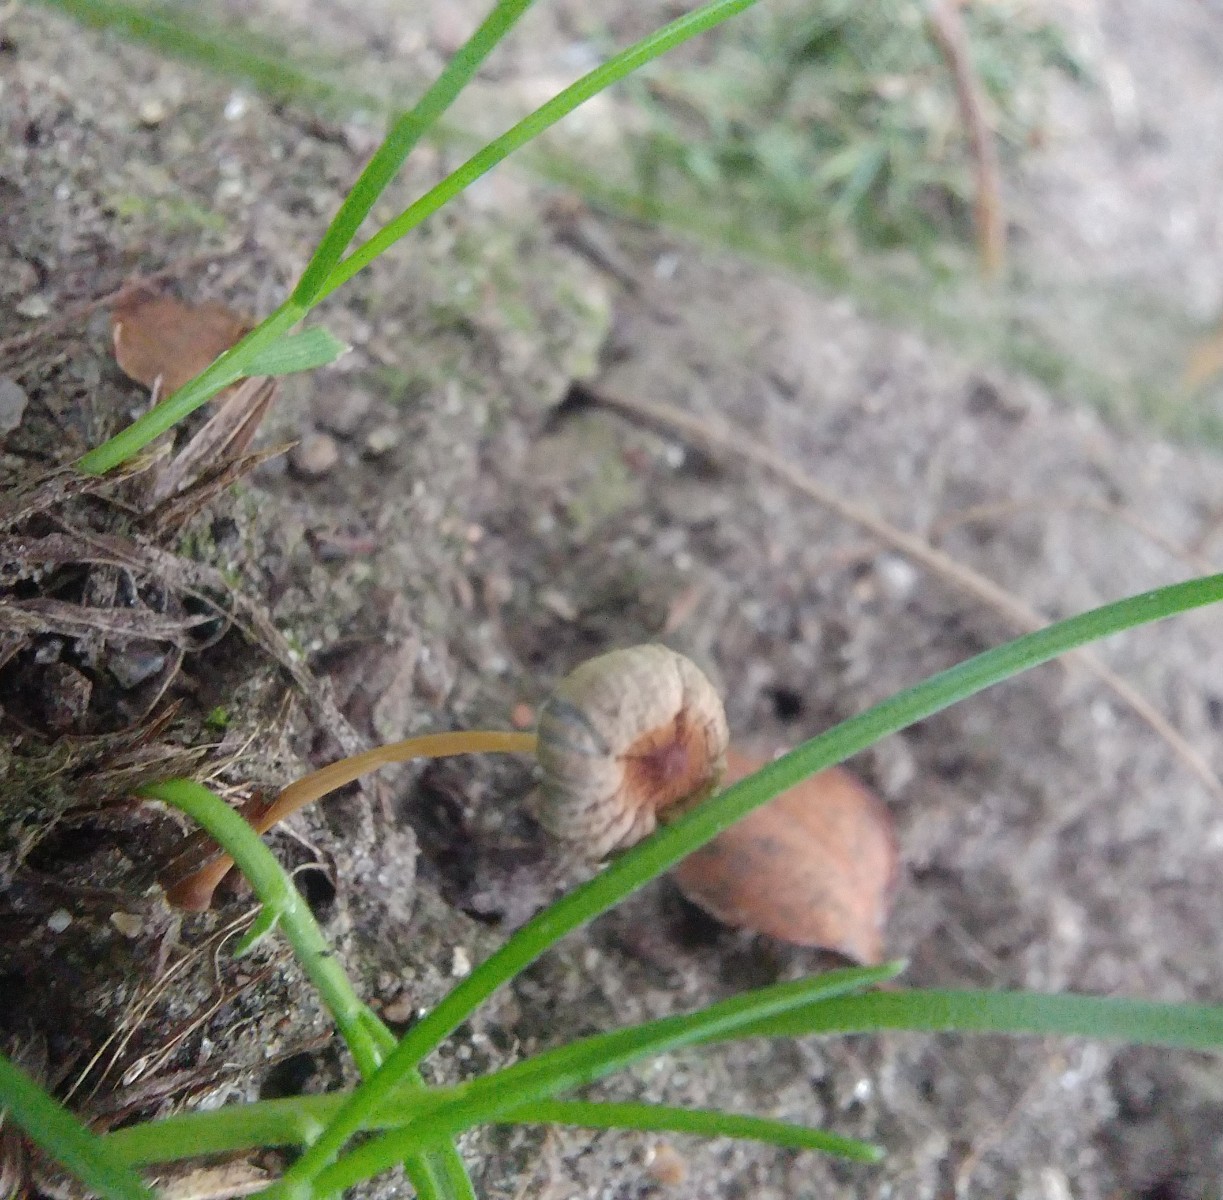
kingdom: Fungi
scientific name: Fungi
